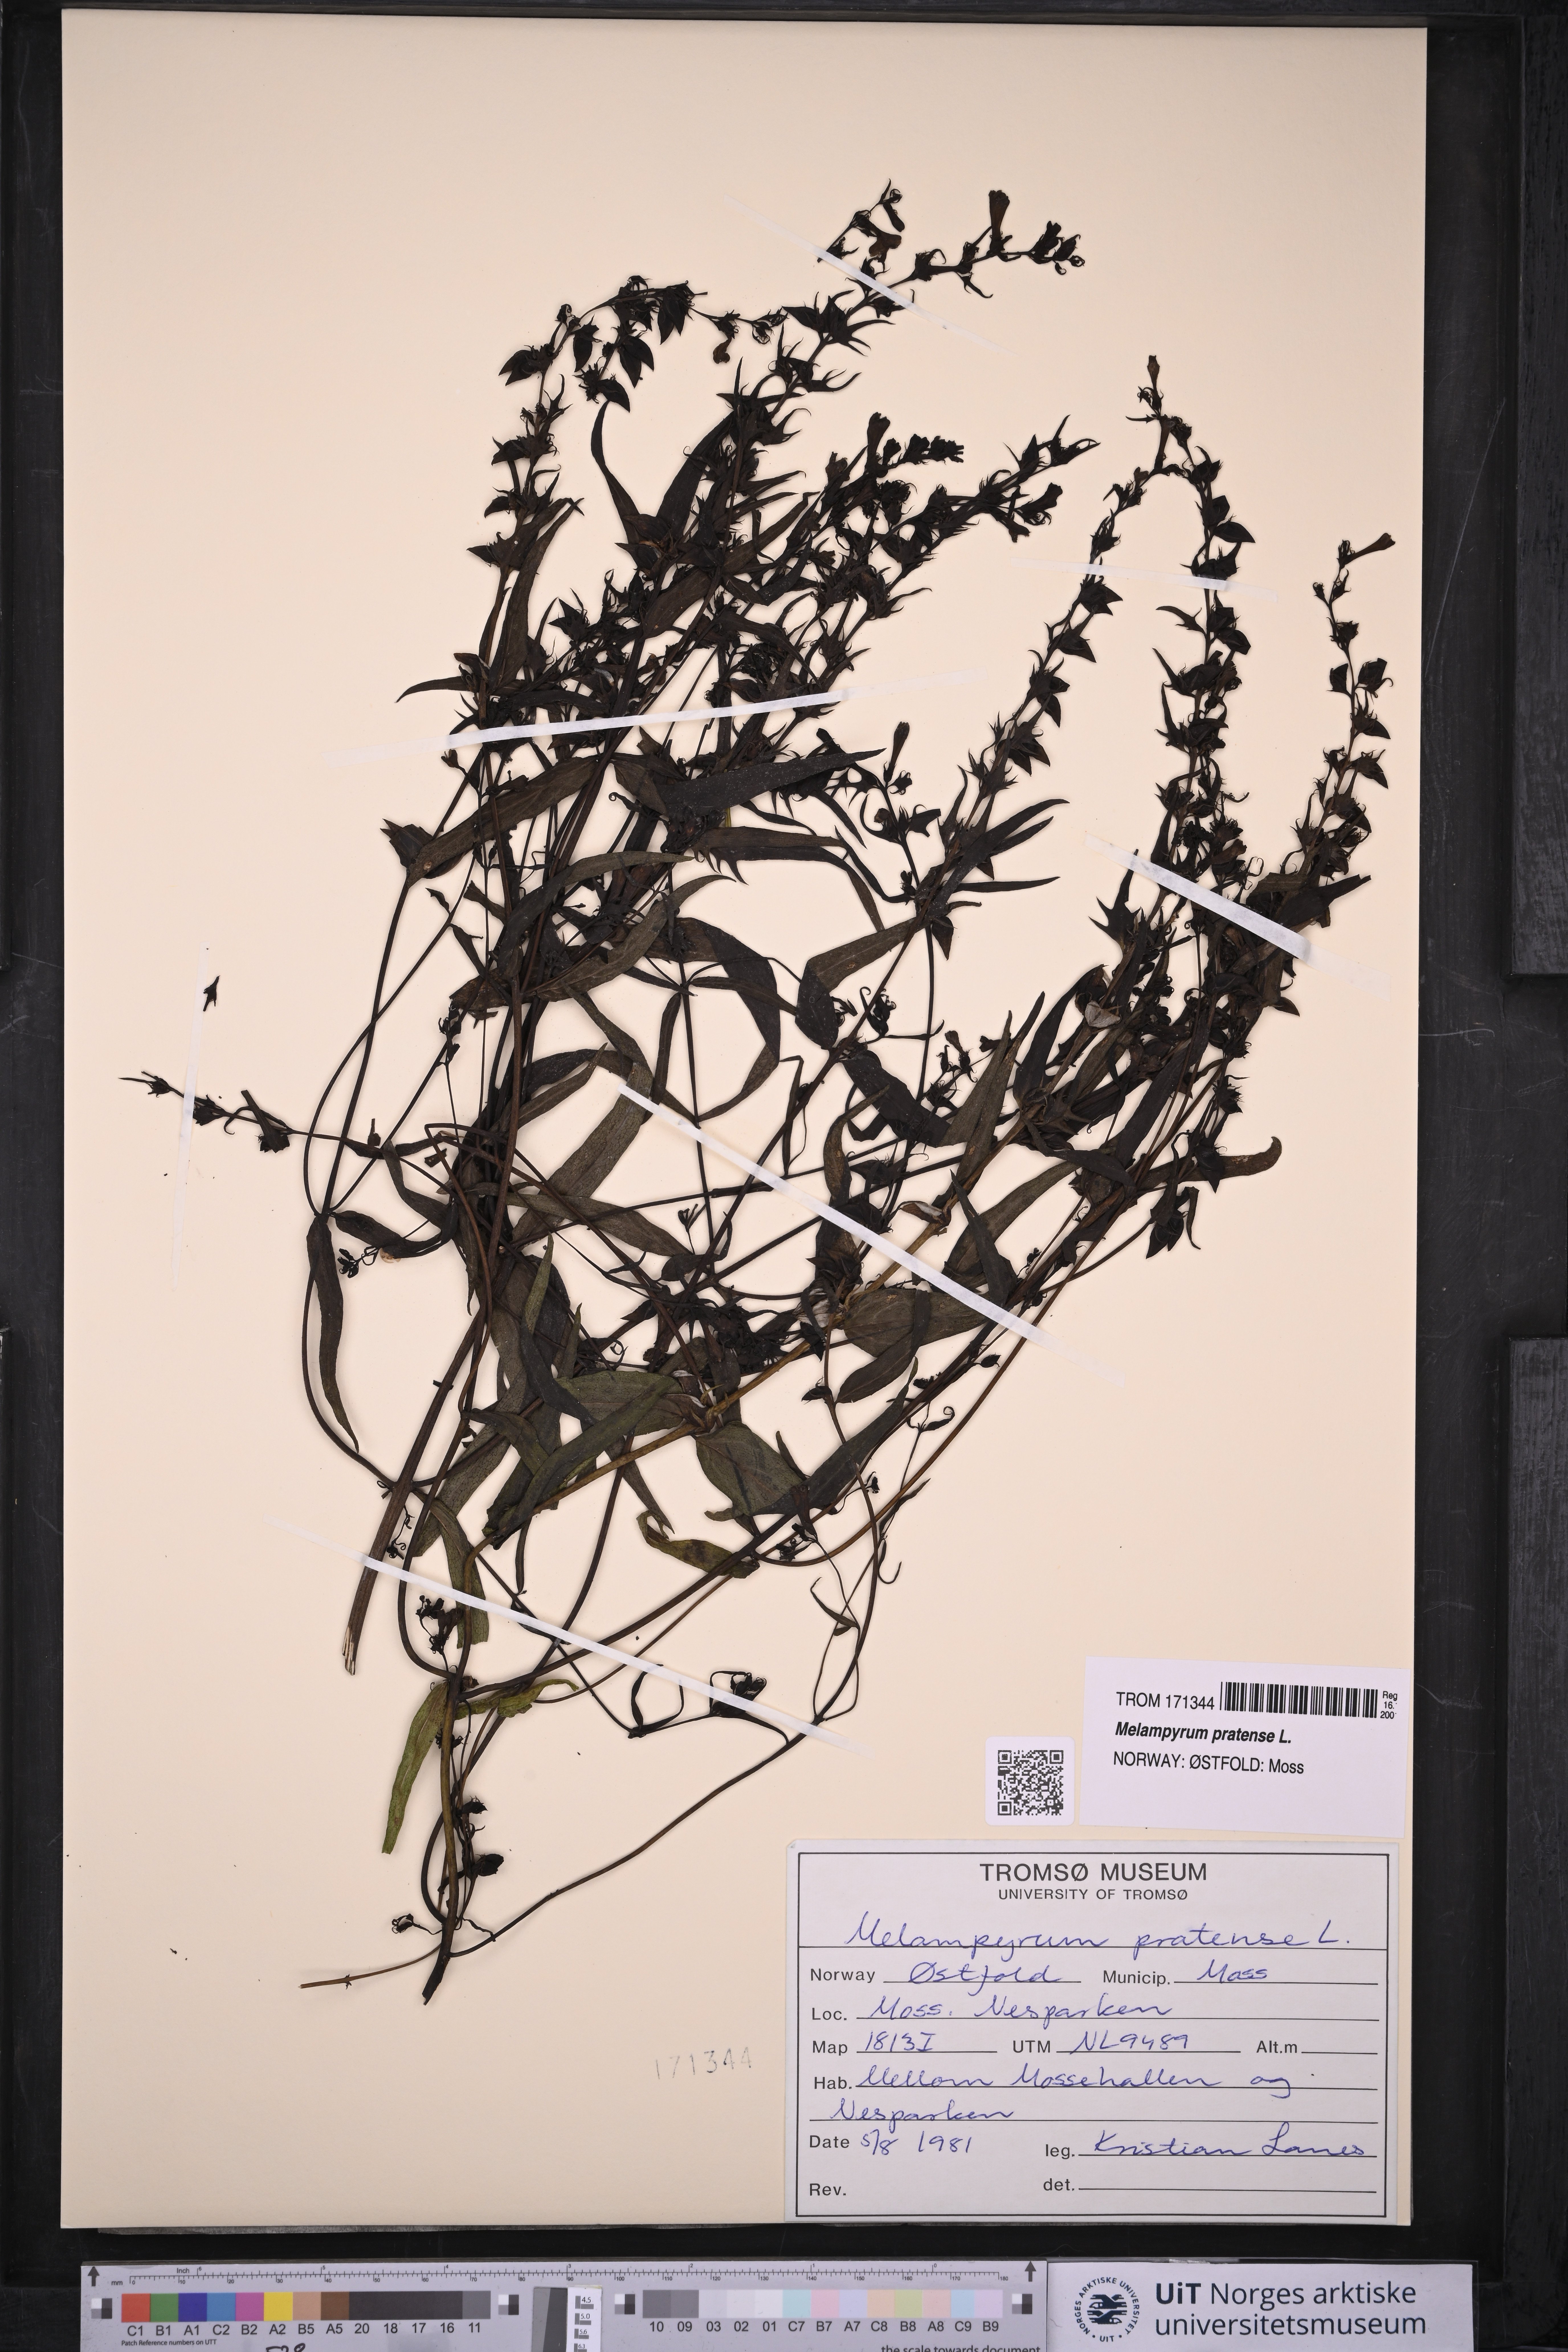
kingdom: Plantae
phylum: Tracheophyta
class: Magnoliopsida
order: Lamiales
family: Orobanchaceae
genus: Melampyrum
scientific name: Melampyrum pratense
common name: Common cow-wheat
